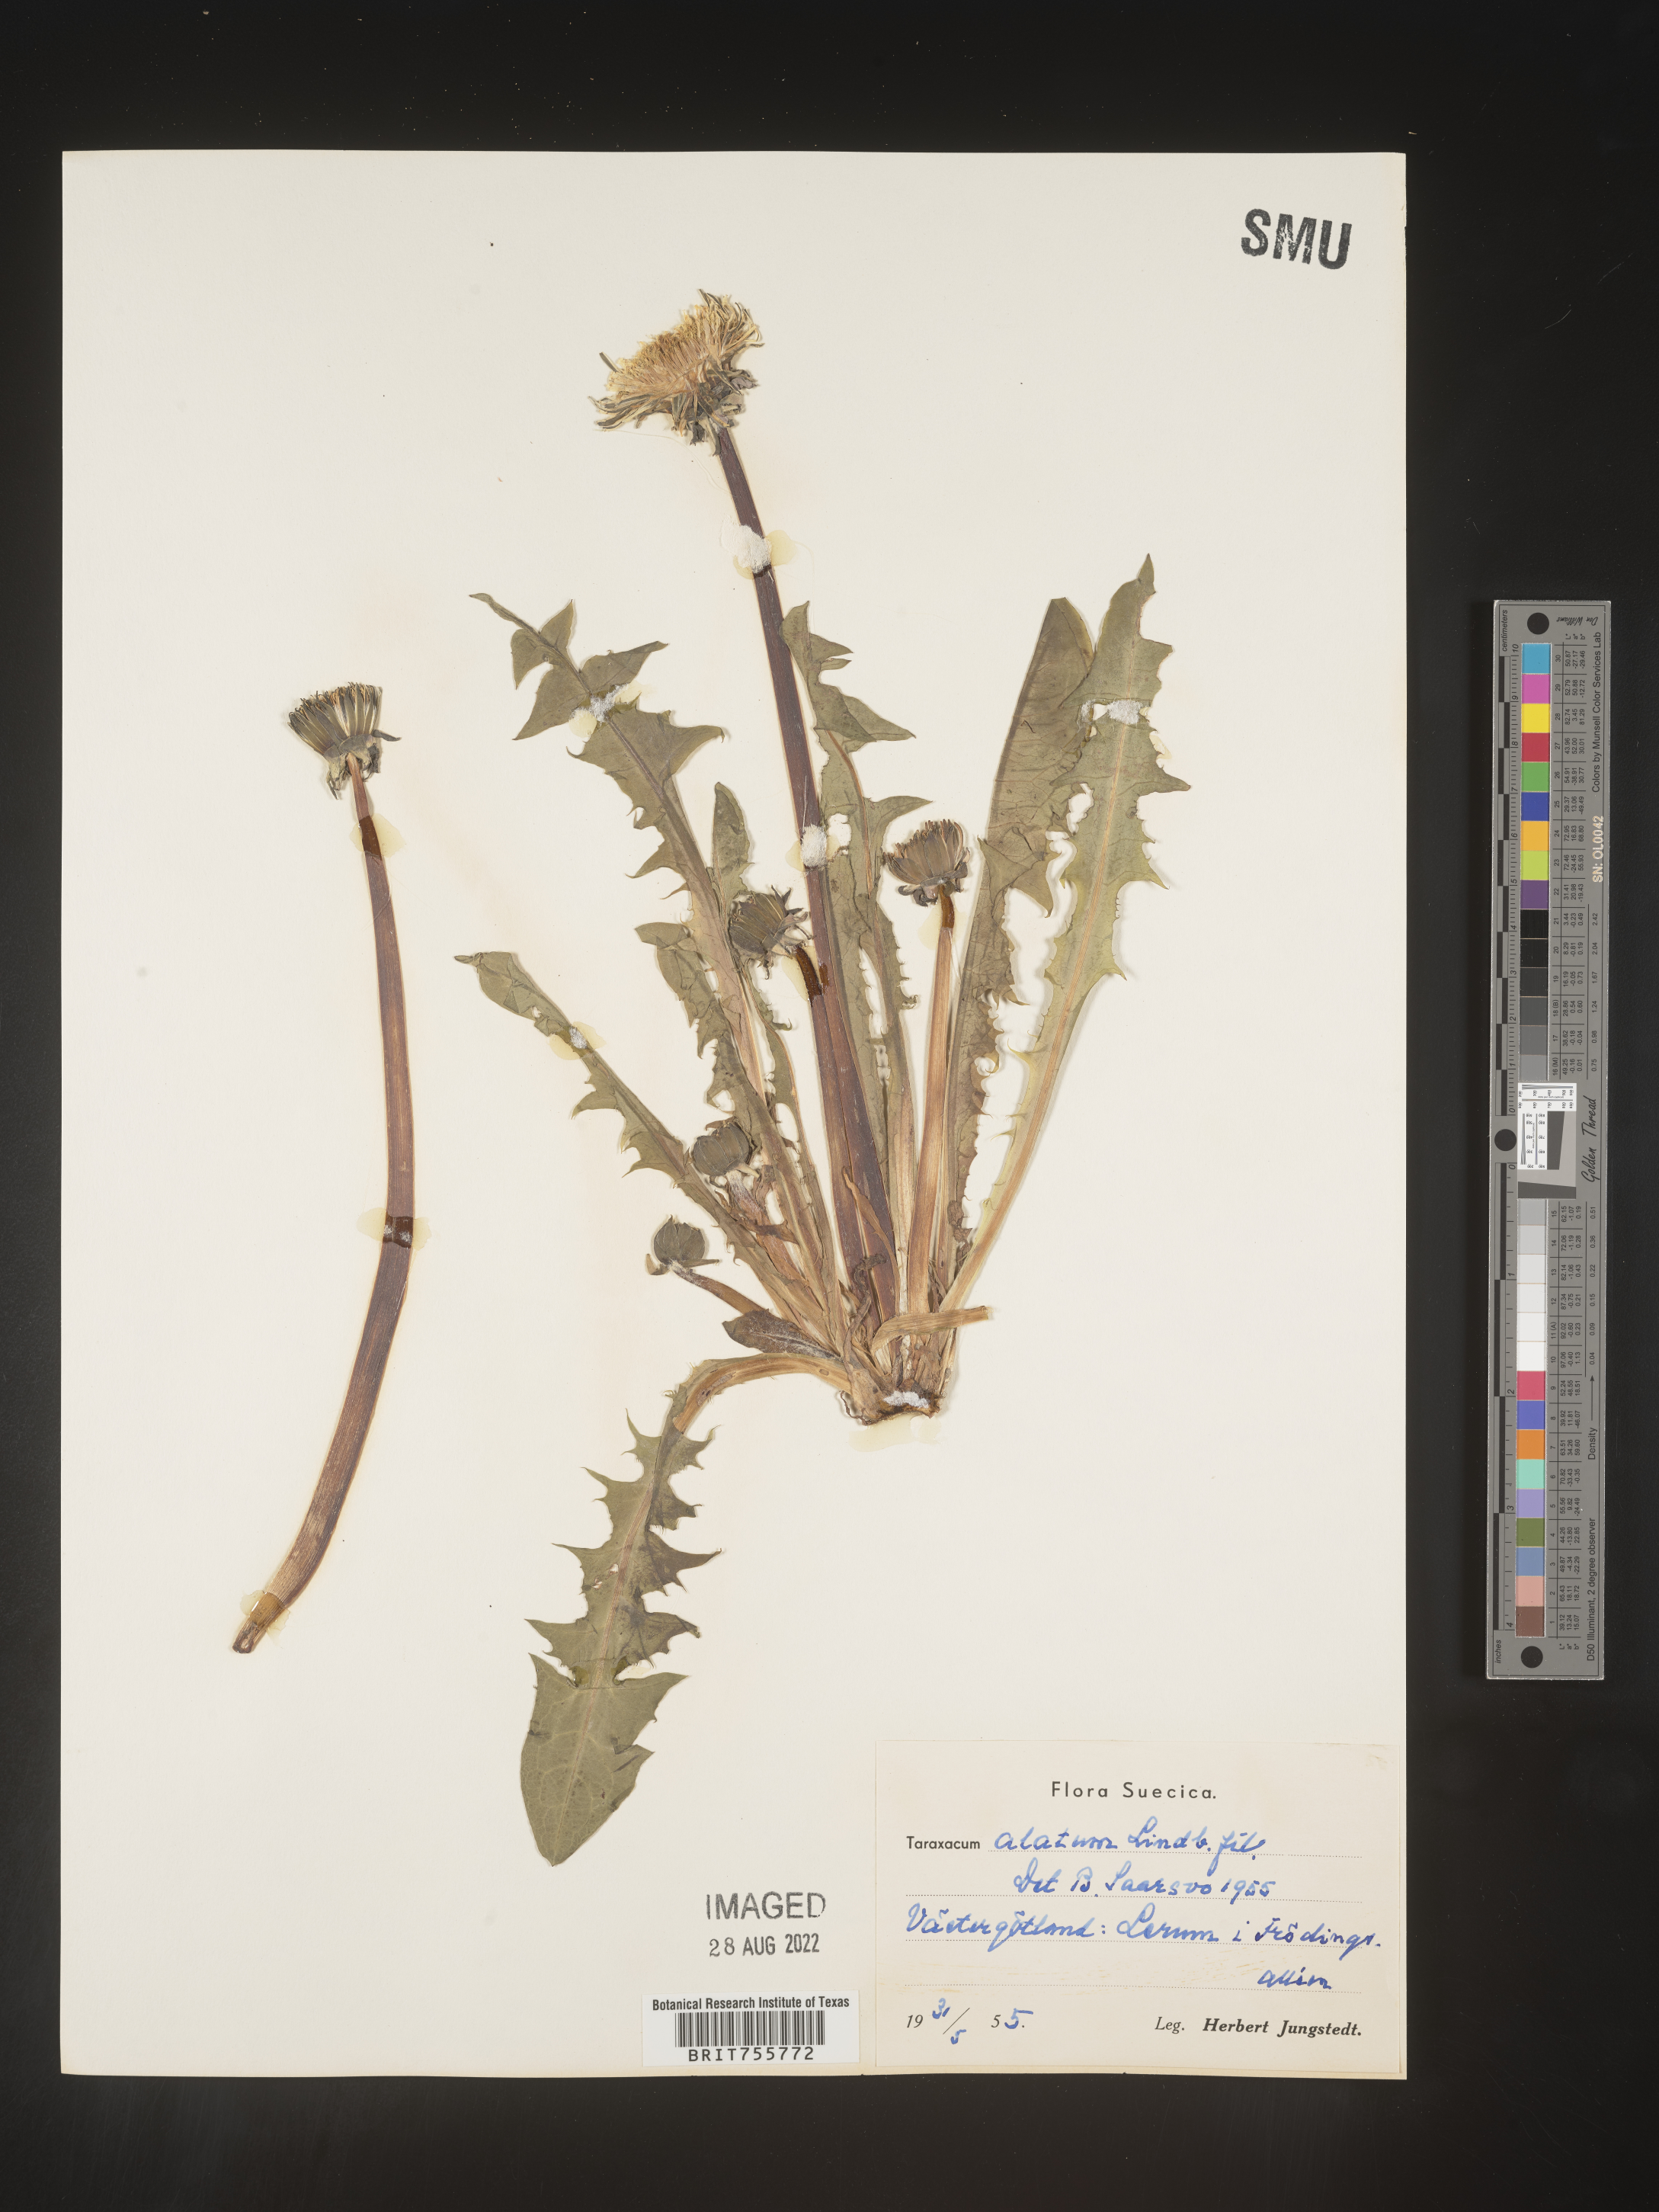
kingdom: Plantae
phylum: Tracheophyta
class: Magnoliopsida
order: Asterales
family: Asteraceae
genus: Taraxacum
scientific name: Taraxacum
